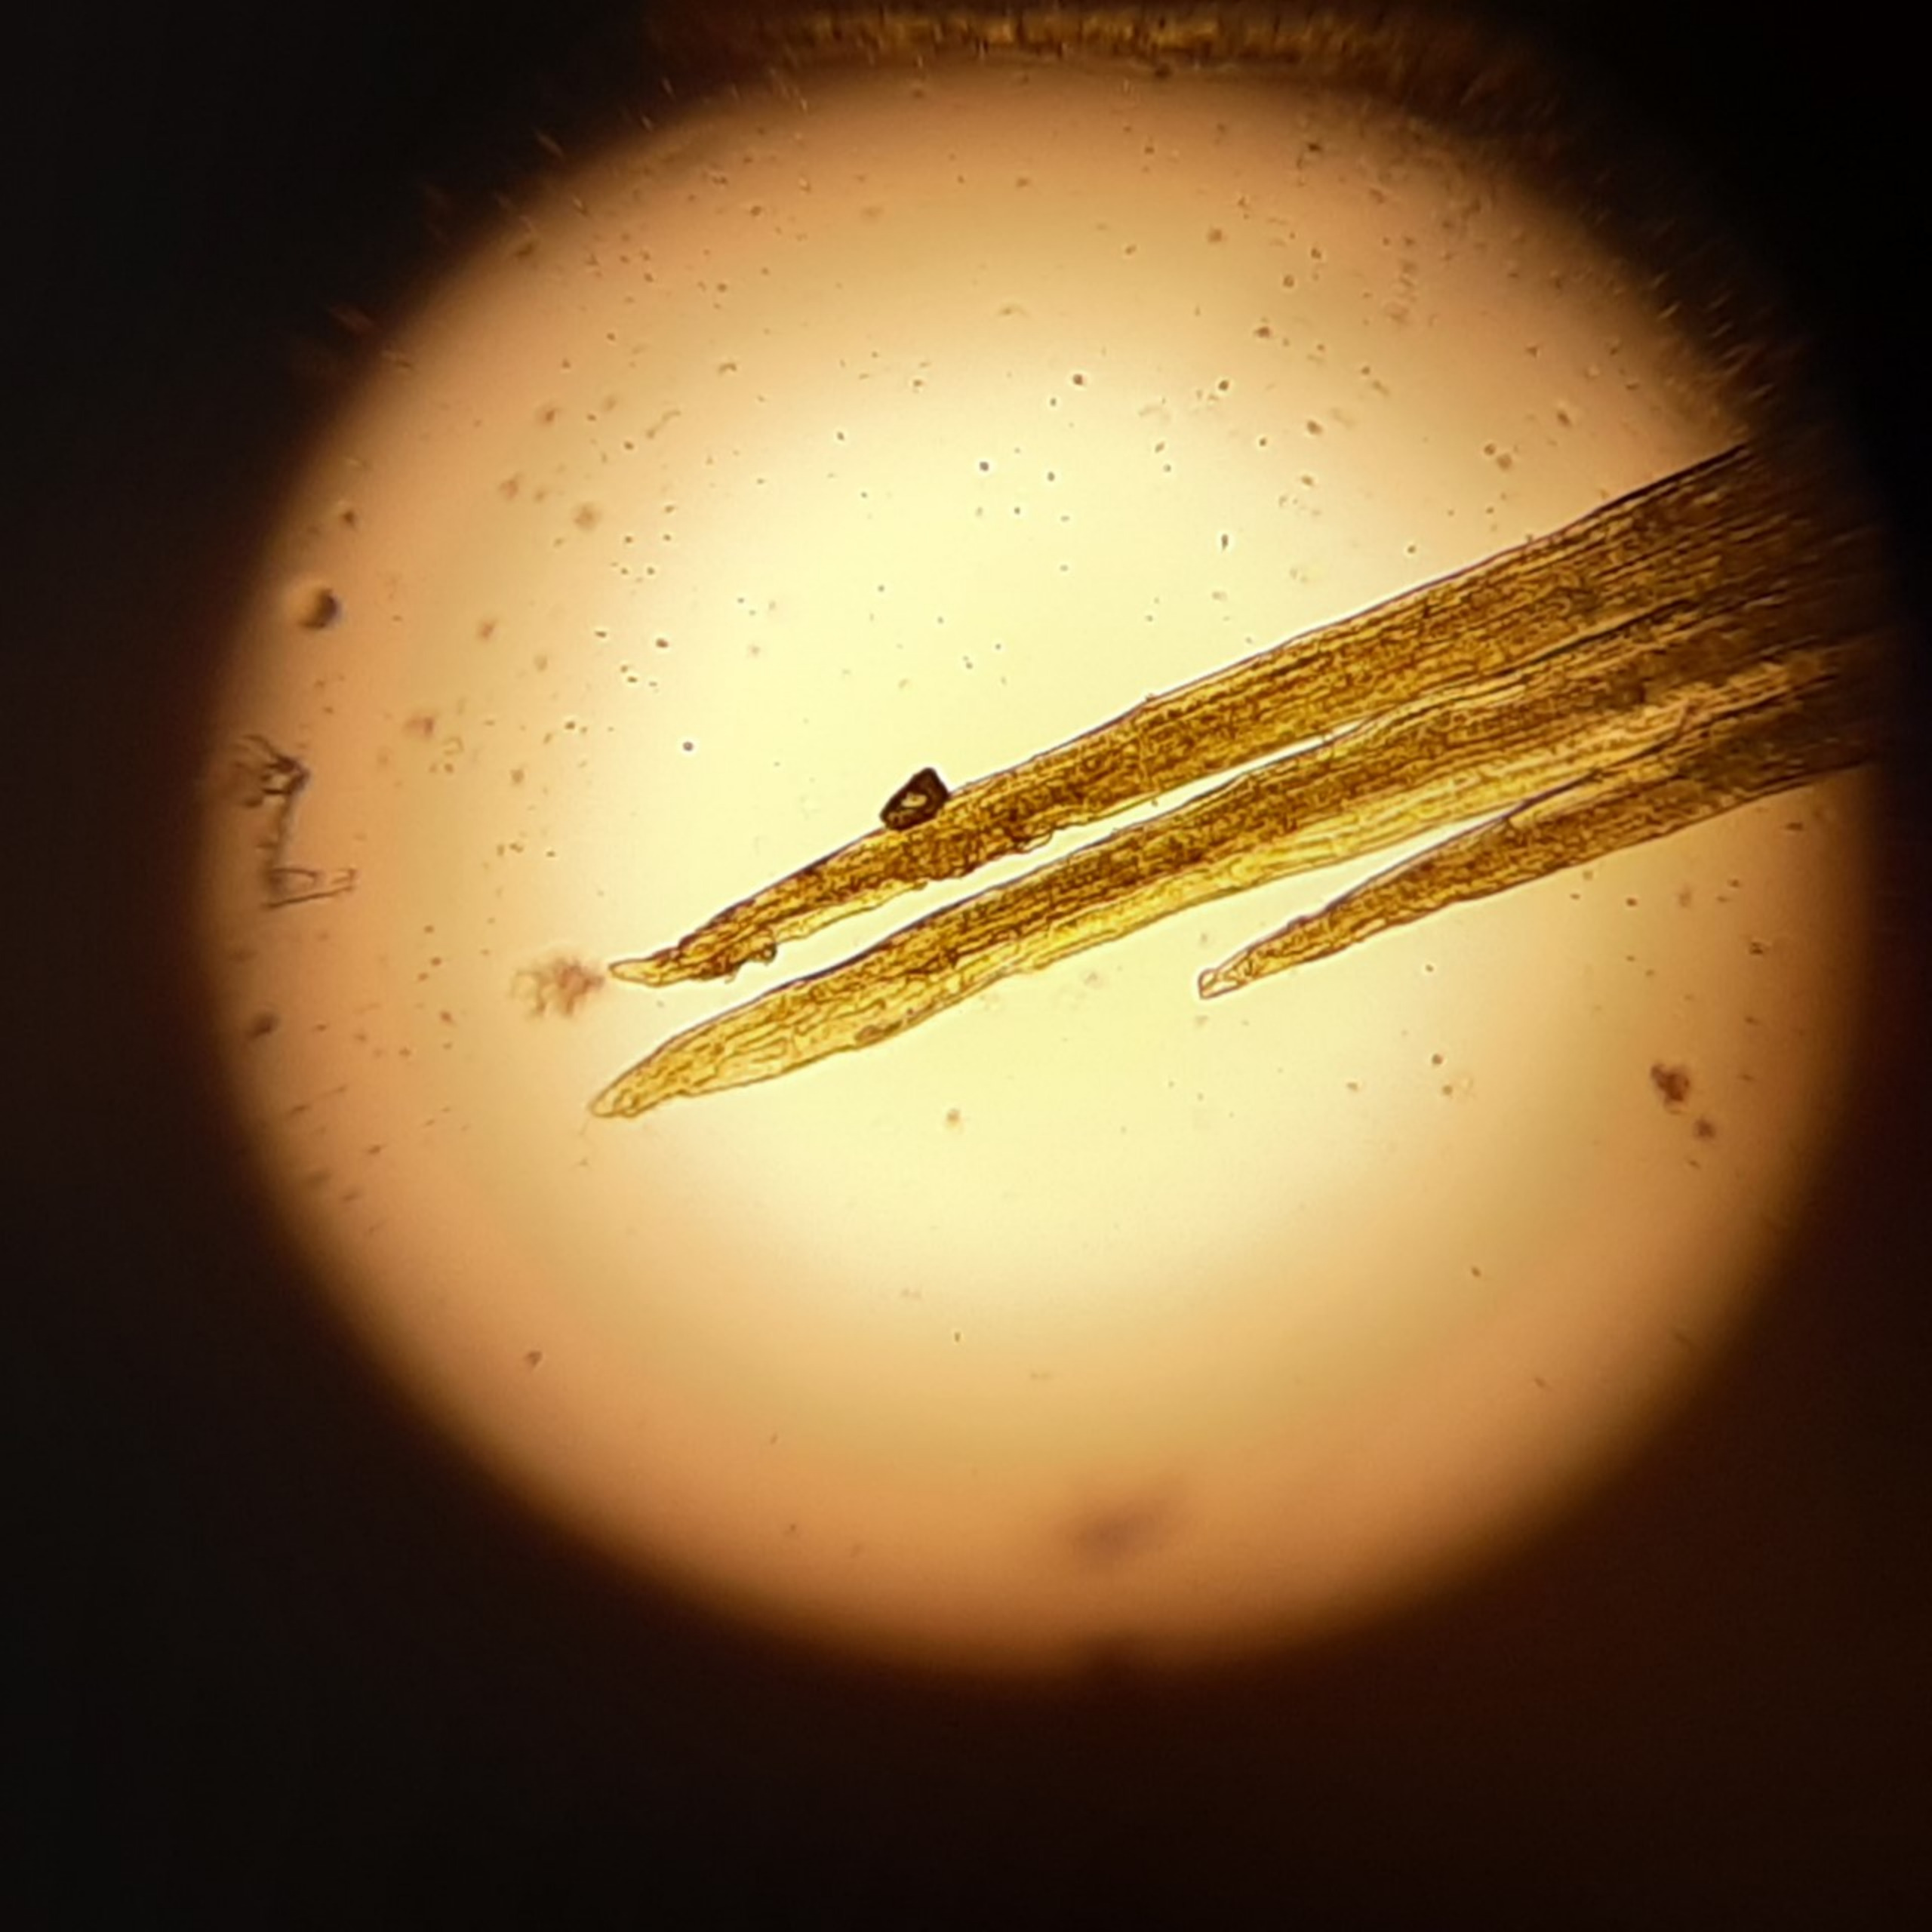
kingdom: Plantae
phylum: Bryophyta
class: Bryopsida
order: Dicranales
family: Dicranellaceae
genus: Dicranella
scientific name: Dicranella varia
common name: Stivbladet skævkapsel
